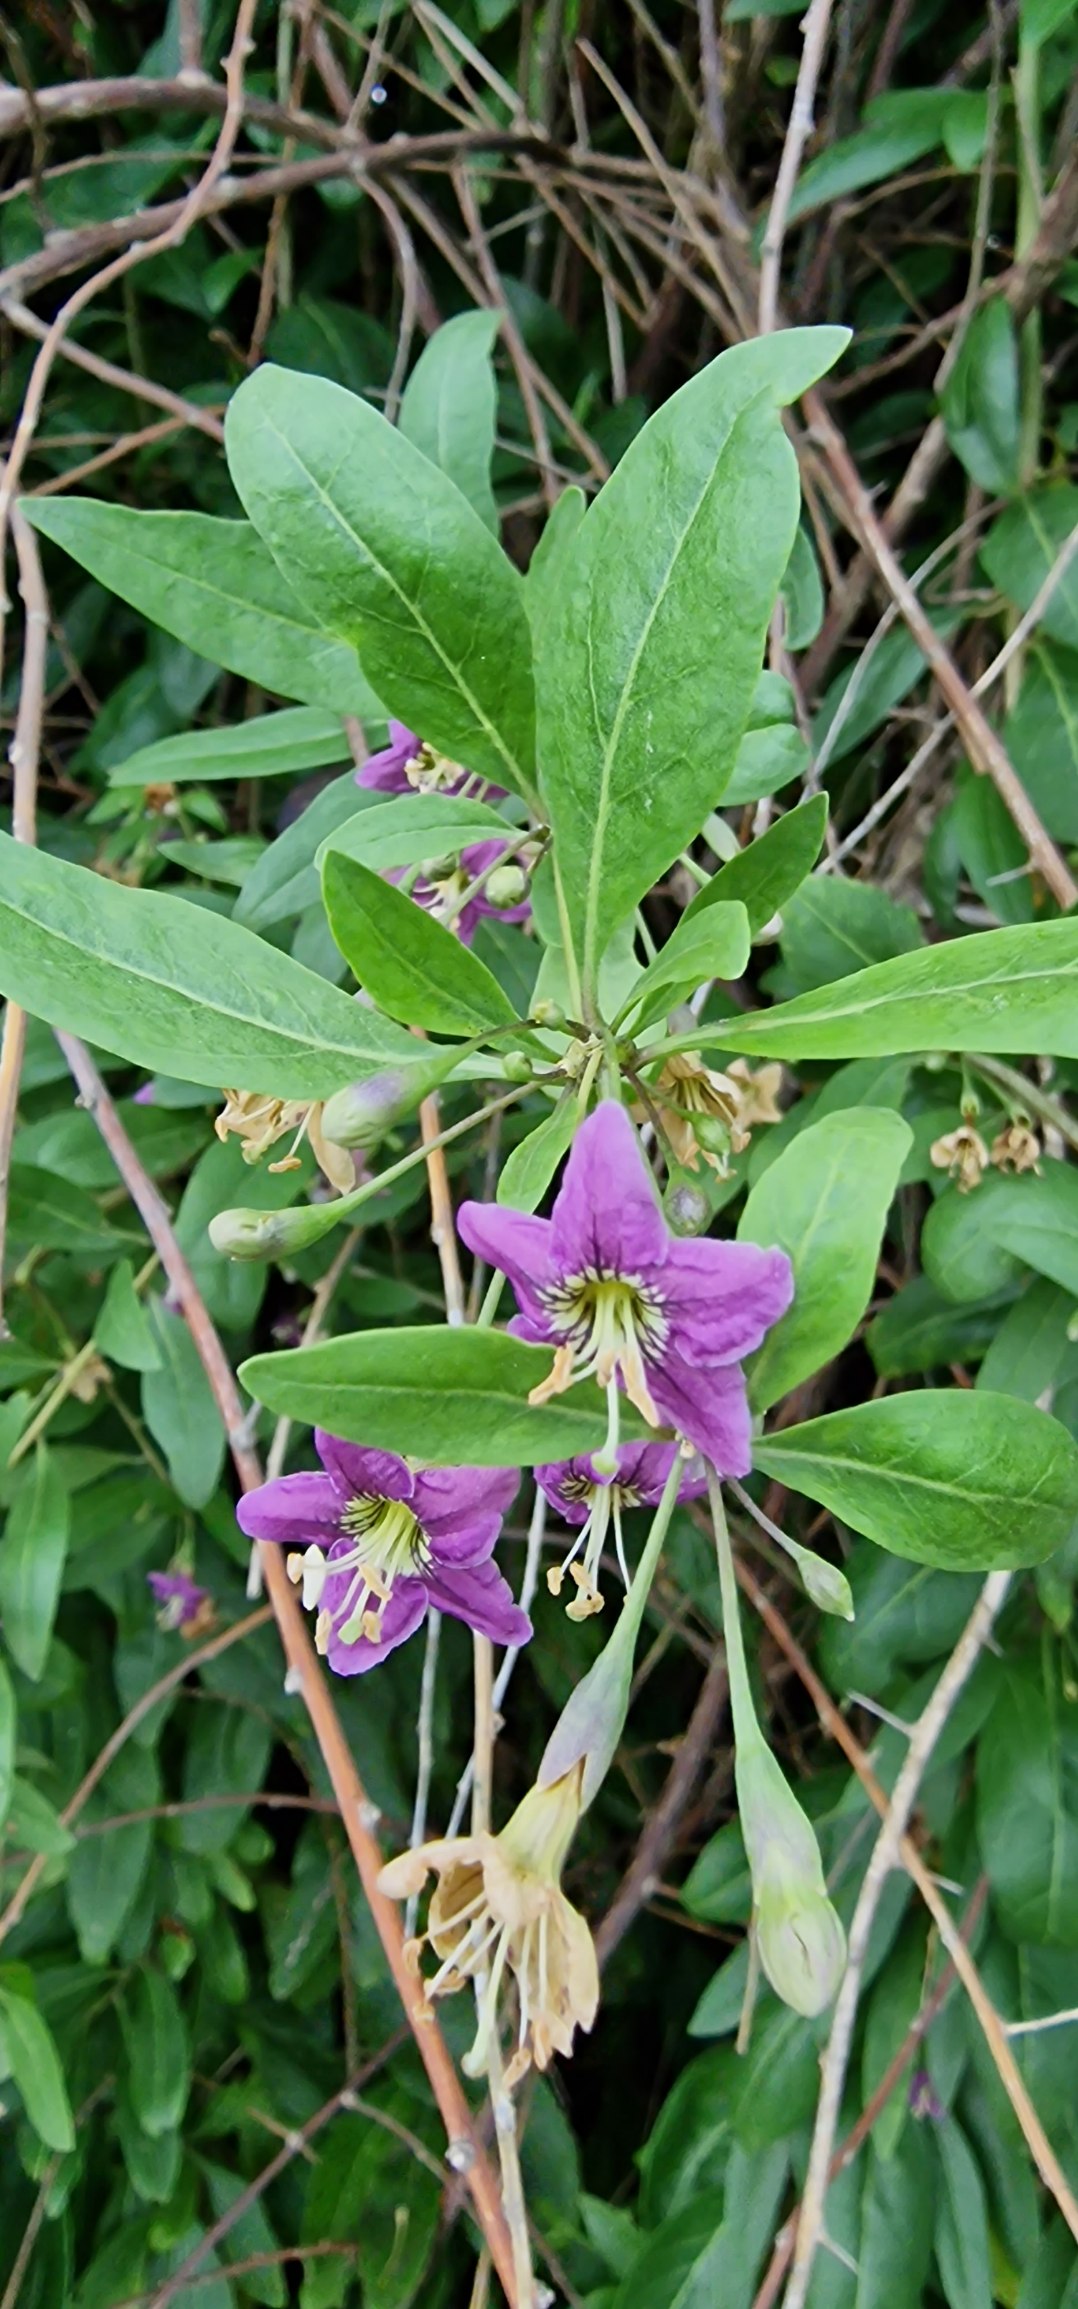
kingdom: Plantae
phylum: Tracheophyta
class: Magnoliopsida
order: Solanales
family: Solanaceae
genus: Lycium
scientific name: Lycium barbarum
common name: Bukketorn
